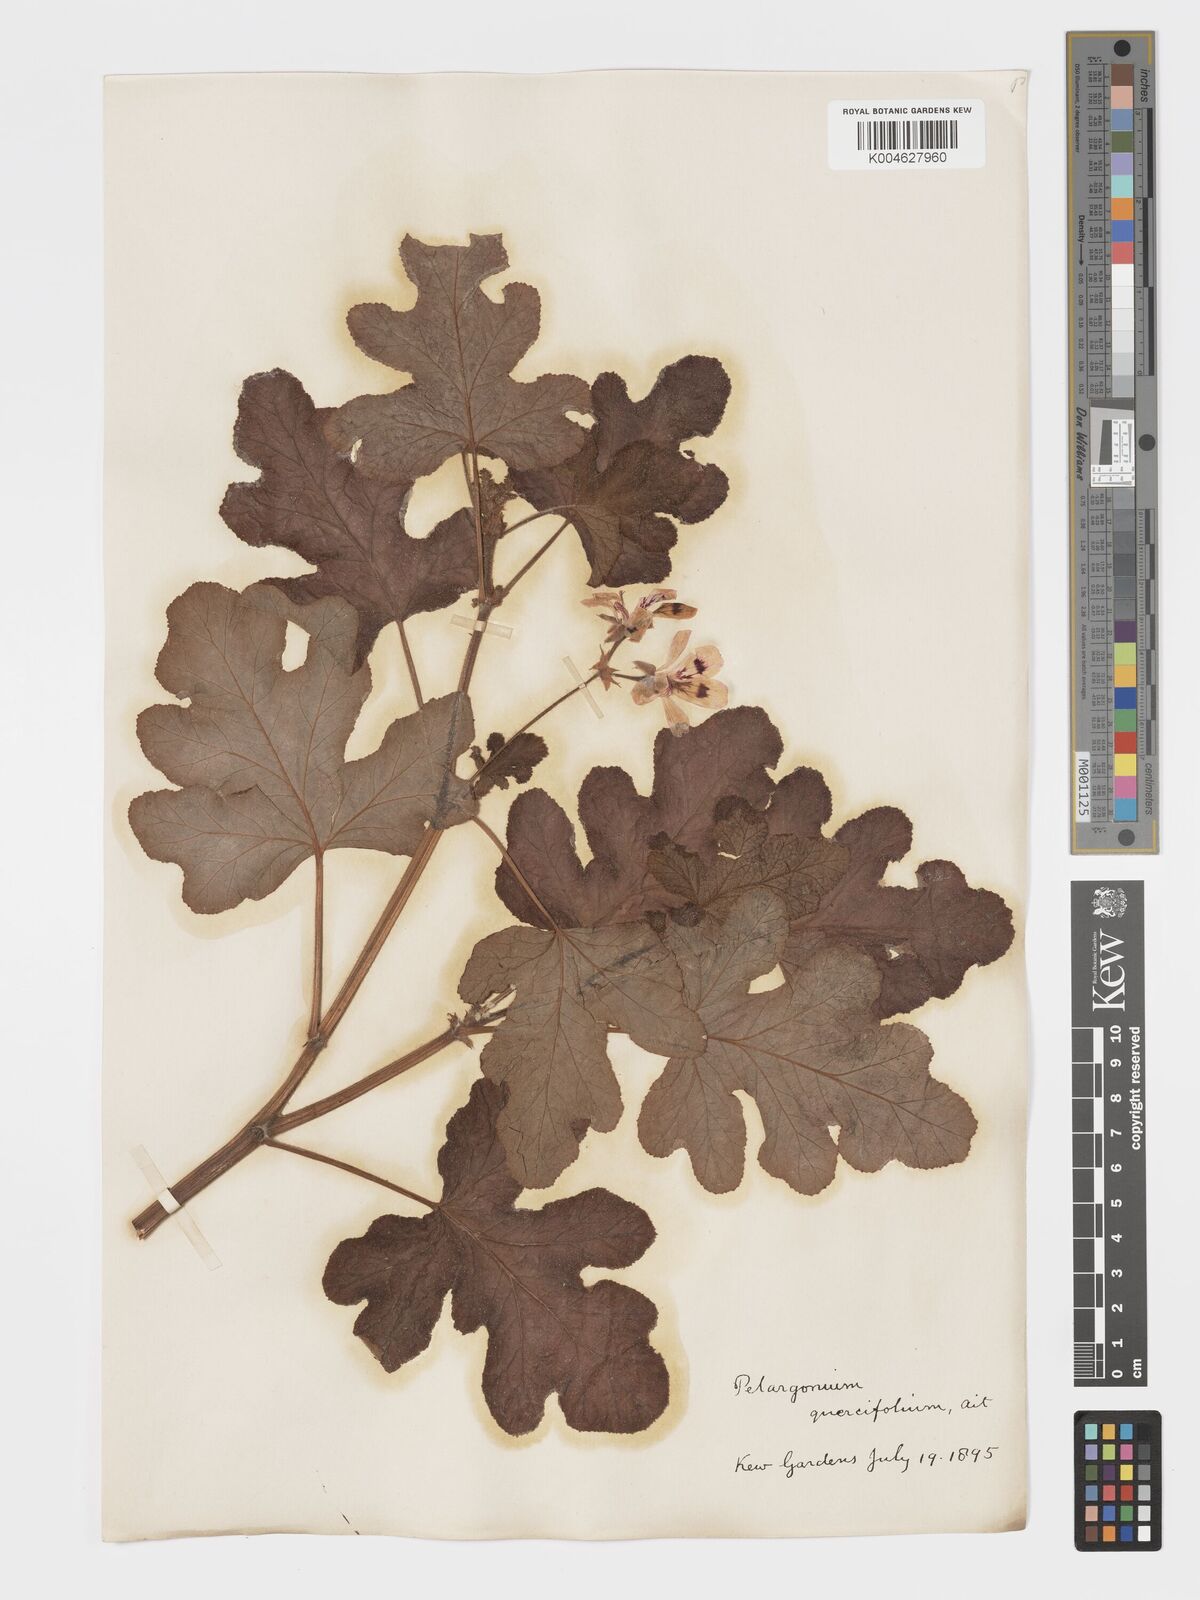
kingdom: Plantae
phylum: Tracheophyta
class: Magnoliopsida
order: Geraniales
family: Geraniaceae
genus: Pelargonium
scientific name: Pelargonium quercifolium
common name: Oakleaf geranium
